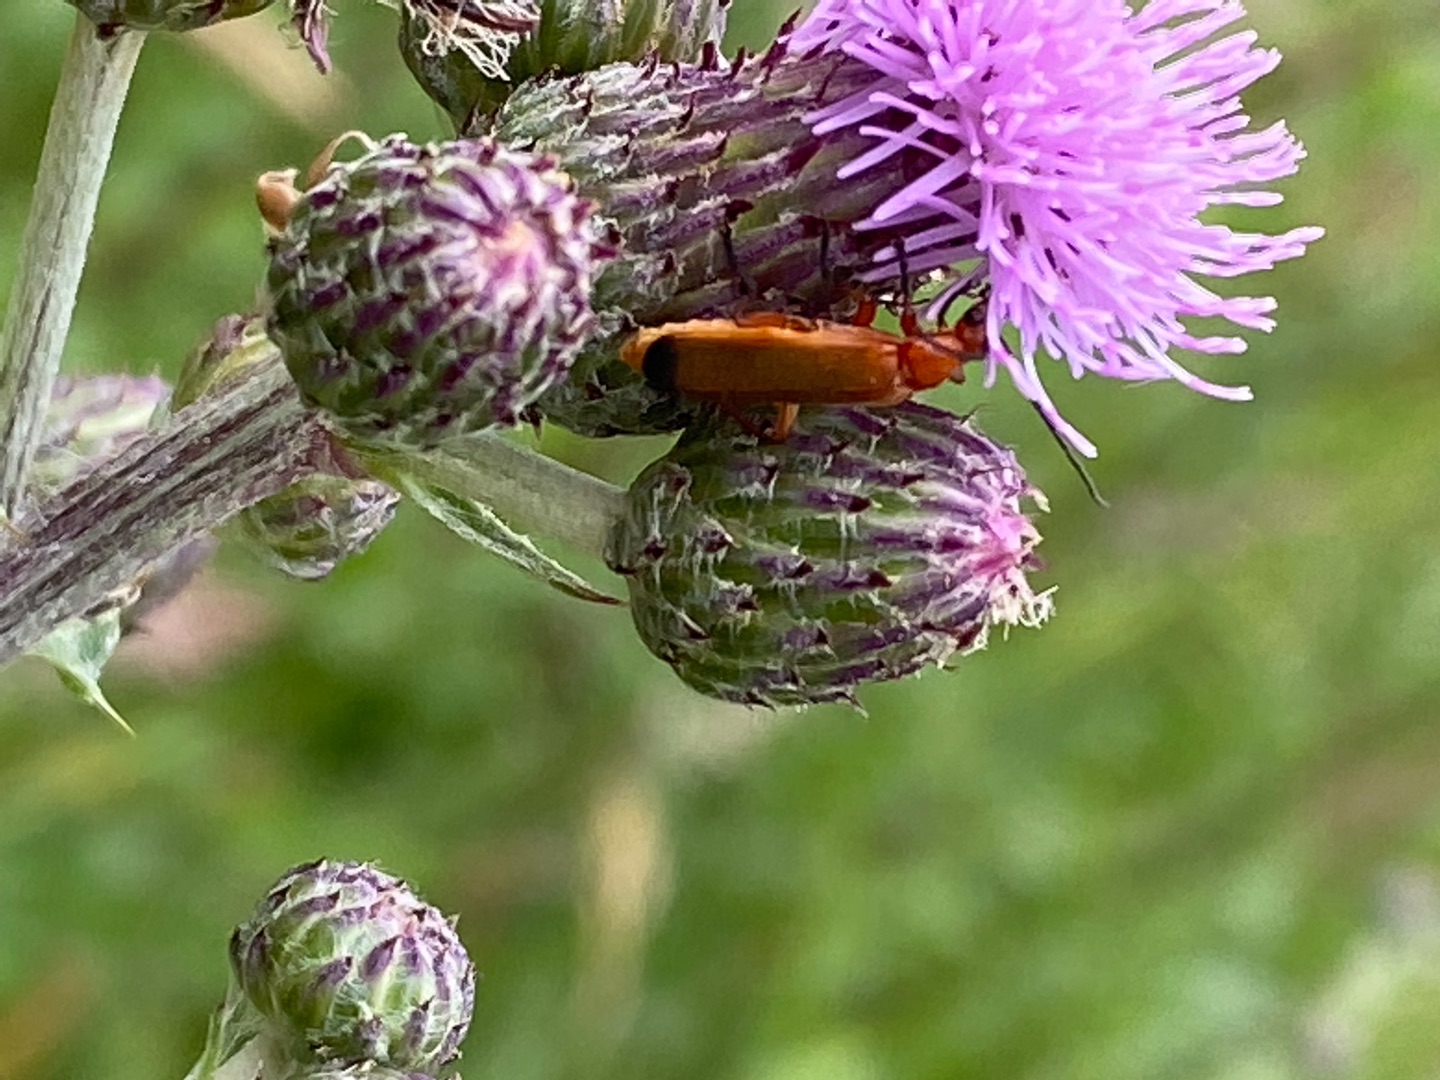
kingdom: Animalia
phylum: Arthropoda
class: Insecta
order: Coleoptera
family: Cantharidae
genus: Rhagonycha
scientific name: Rhagonycha fulva
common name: Præstebille
